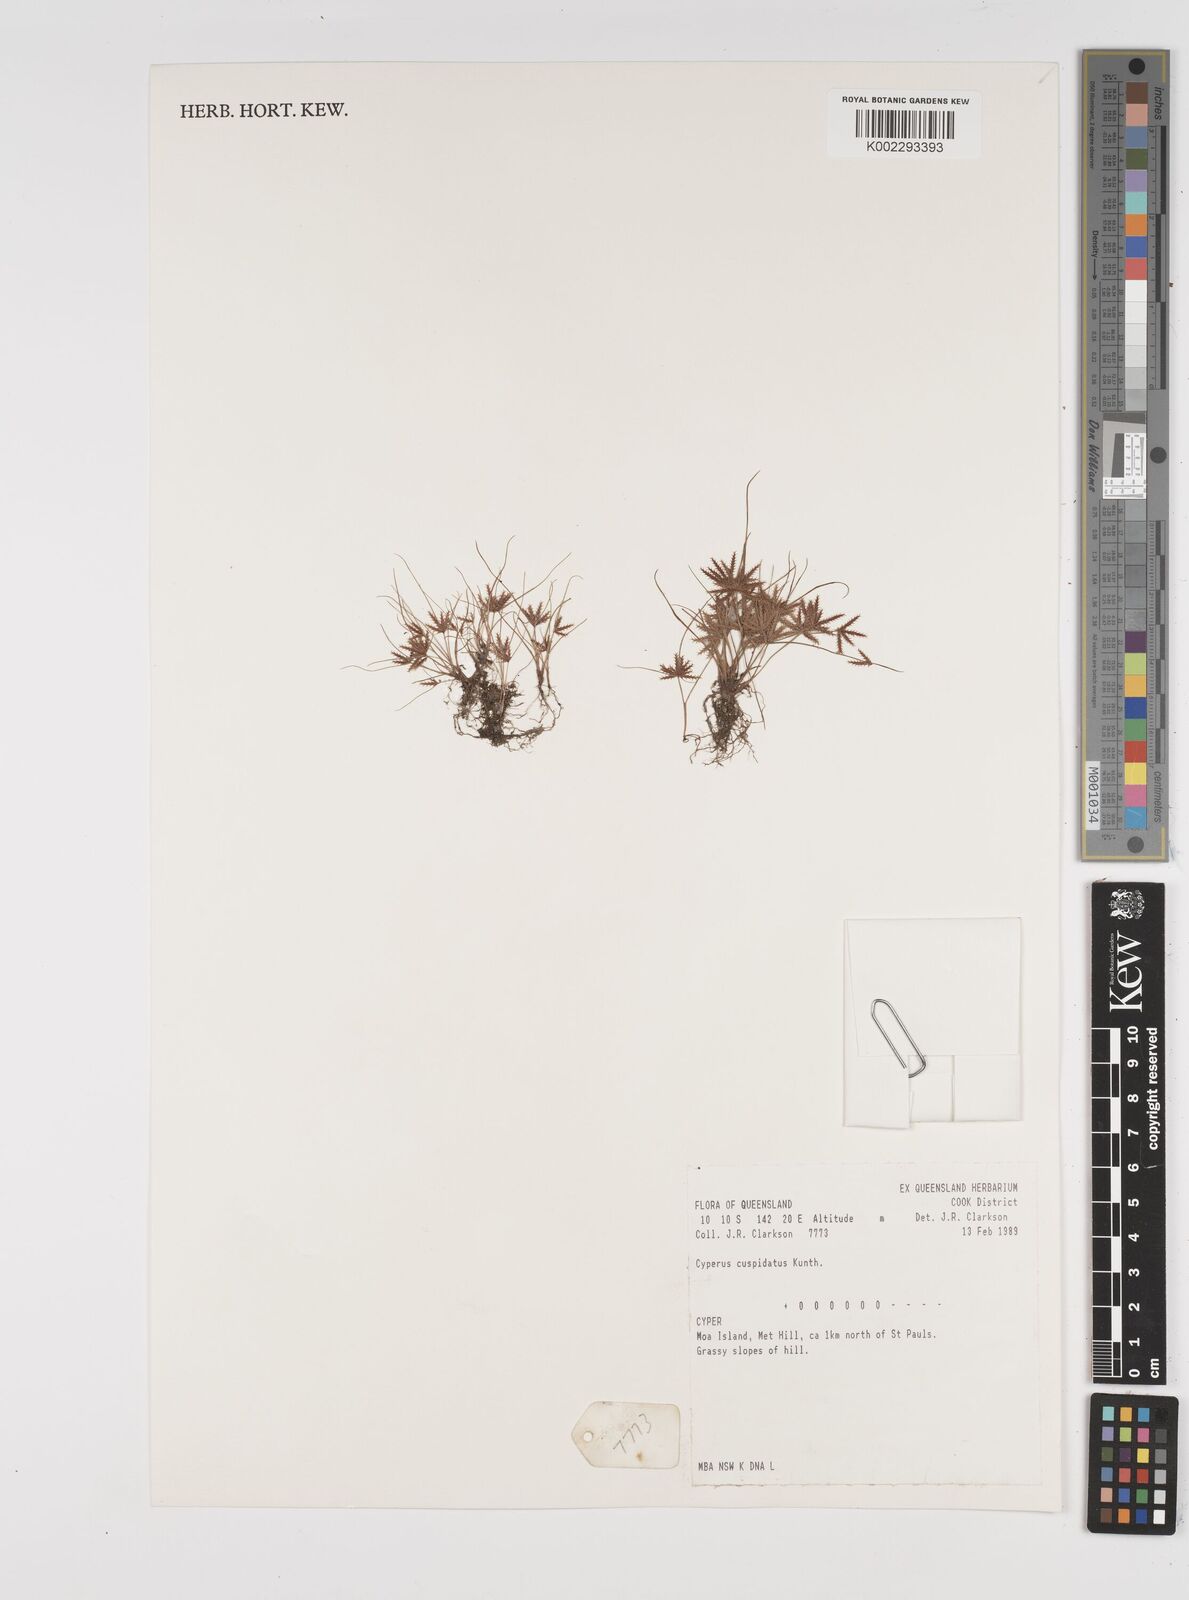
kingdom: Plantae
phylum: Tracheophyta
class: Liliopsida
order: Poales
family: Cyperaceae
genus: Cyperus
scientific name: Cyperus cuspidatus
